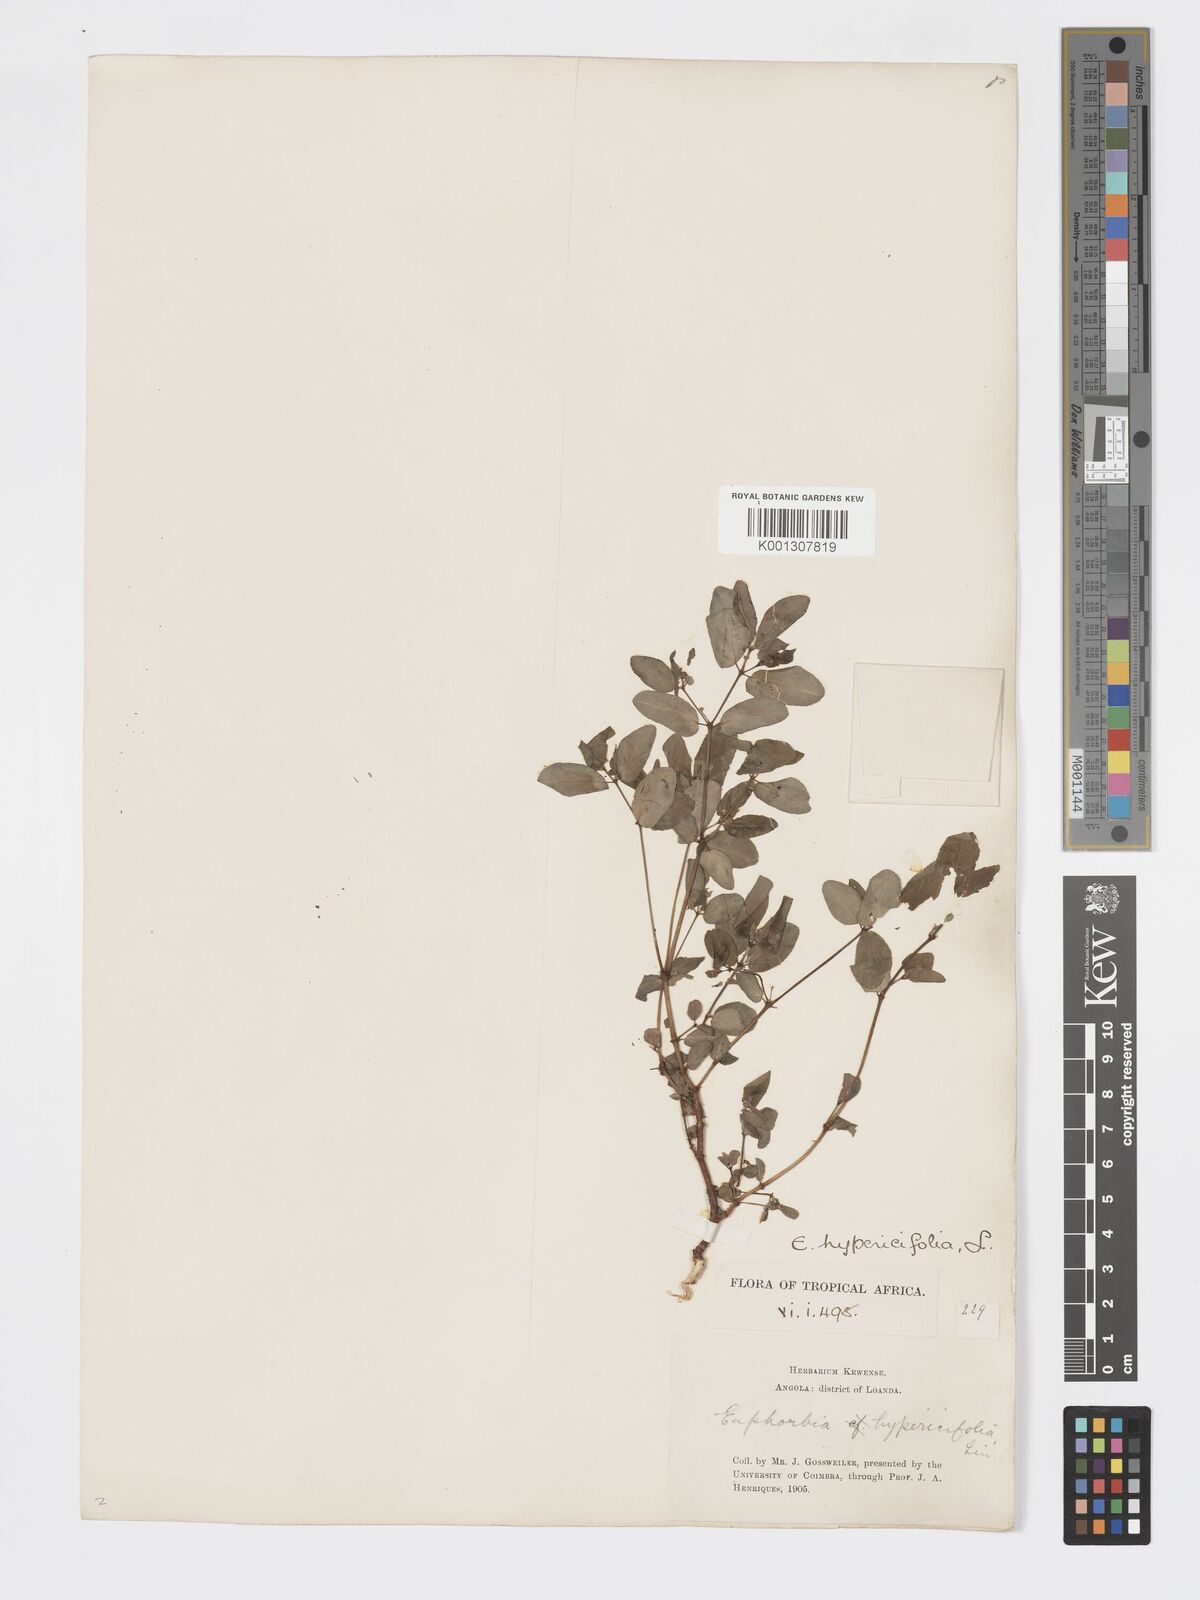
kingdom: Plantae
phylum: Tracheophyta
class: Magnoliopsida
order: Malpighiales
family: Euphorbiaceae
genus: Euphorbia
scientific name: Euphorbia indica
